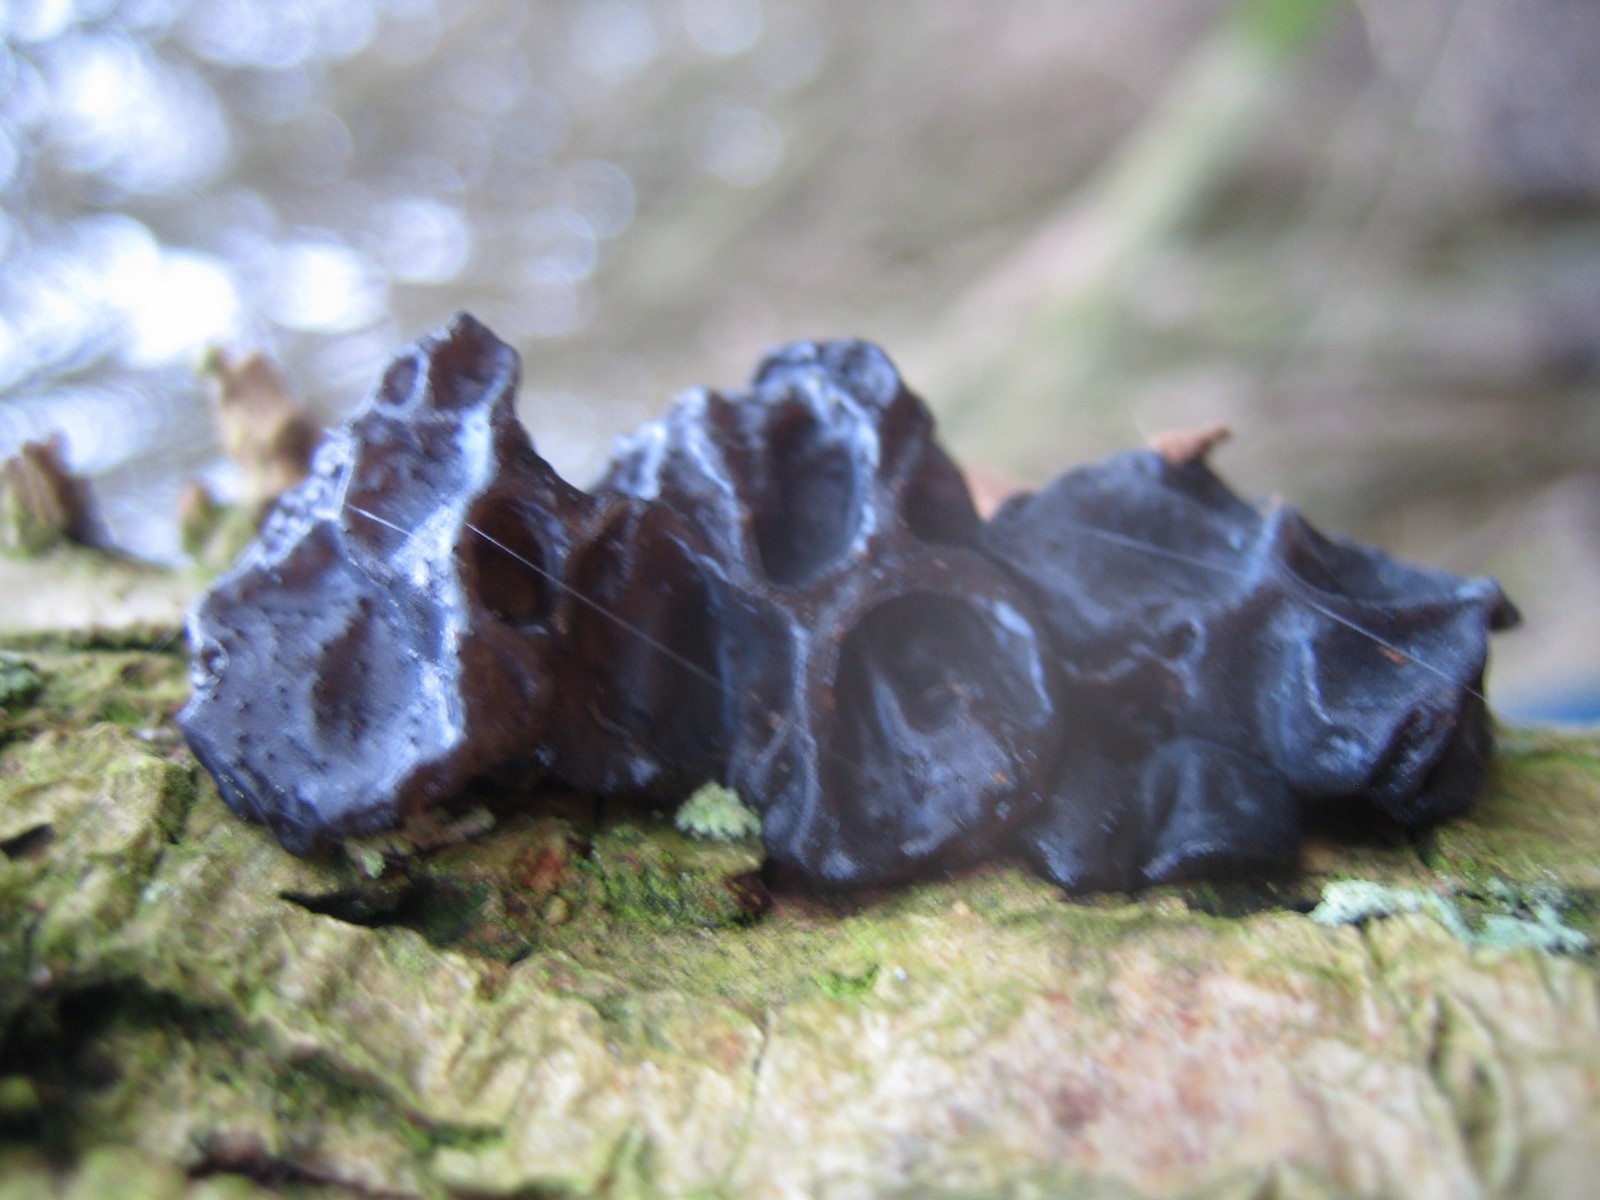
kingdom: Fungi
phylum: Basidiomycota
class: Agaricomycetes
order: Auriculariales
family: Auriculariaceae
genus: Exidia
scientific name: Exidia glandulosa
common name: ege-bævretop
